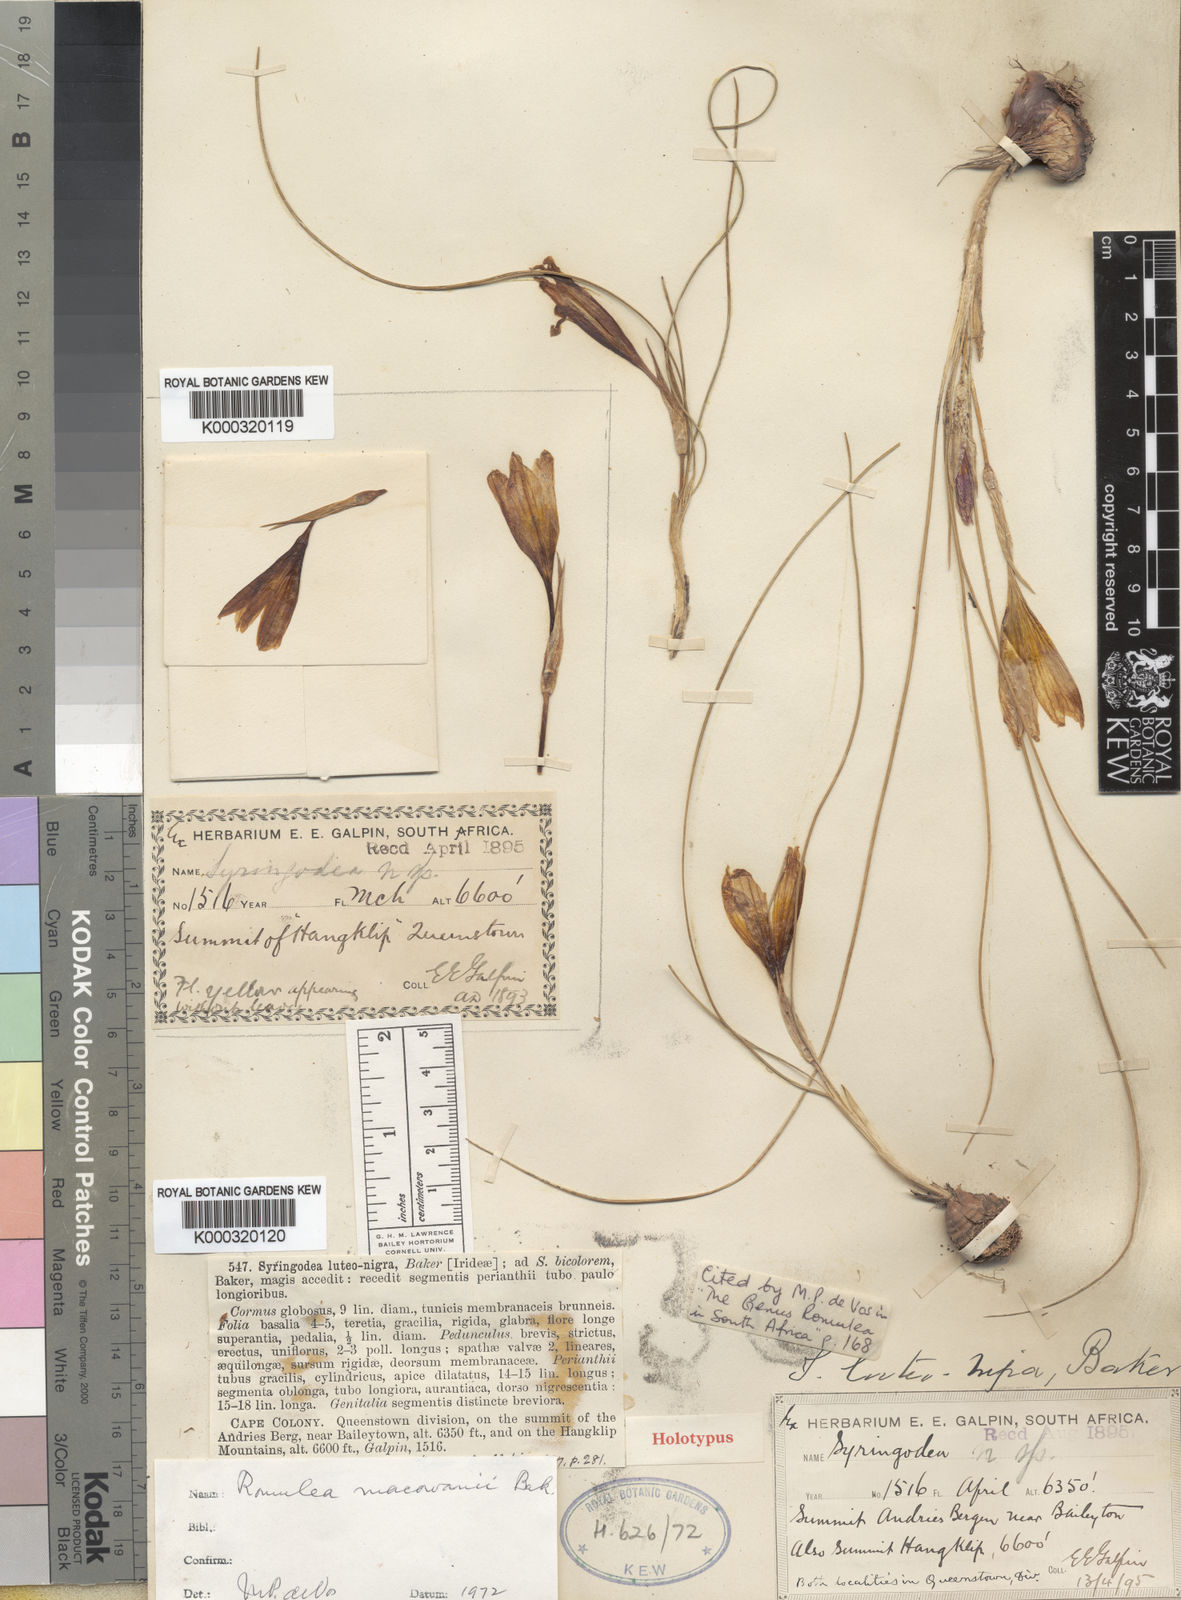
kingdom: Plantae
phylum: Tracheophyta
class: Liliopsida
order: Asparagales
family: Iridaceae
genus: Romulea
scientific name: Romulea macowanii
